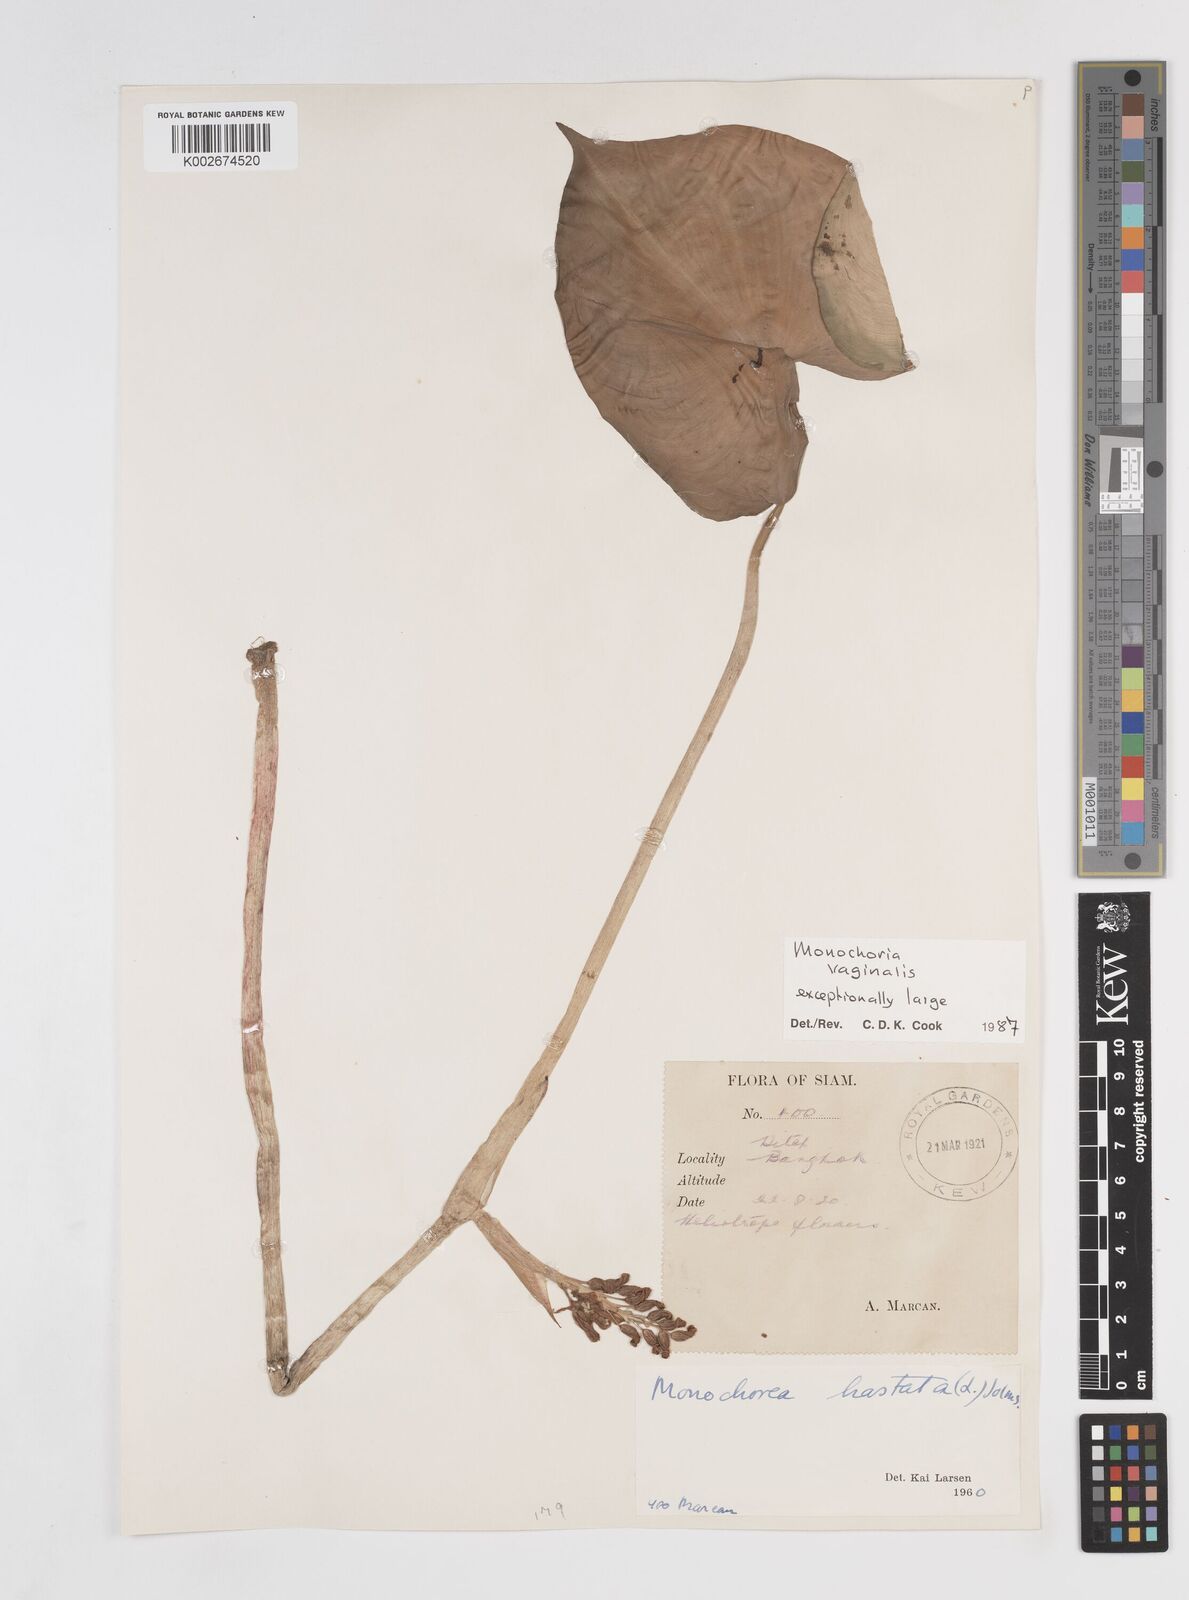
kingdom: Plantae
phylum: Tracheophyta
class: Liliopsida
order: Commelinales
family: Pontederiaceae
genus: Pontederia
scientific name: Pontederia vaginalis
